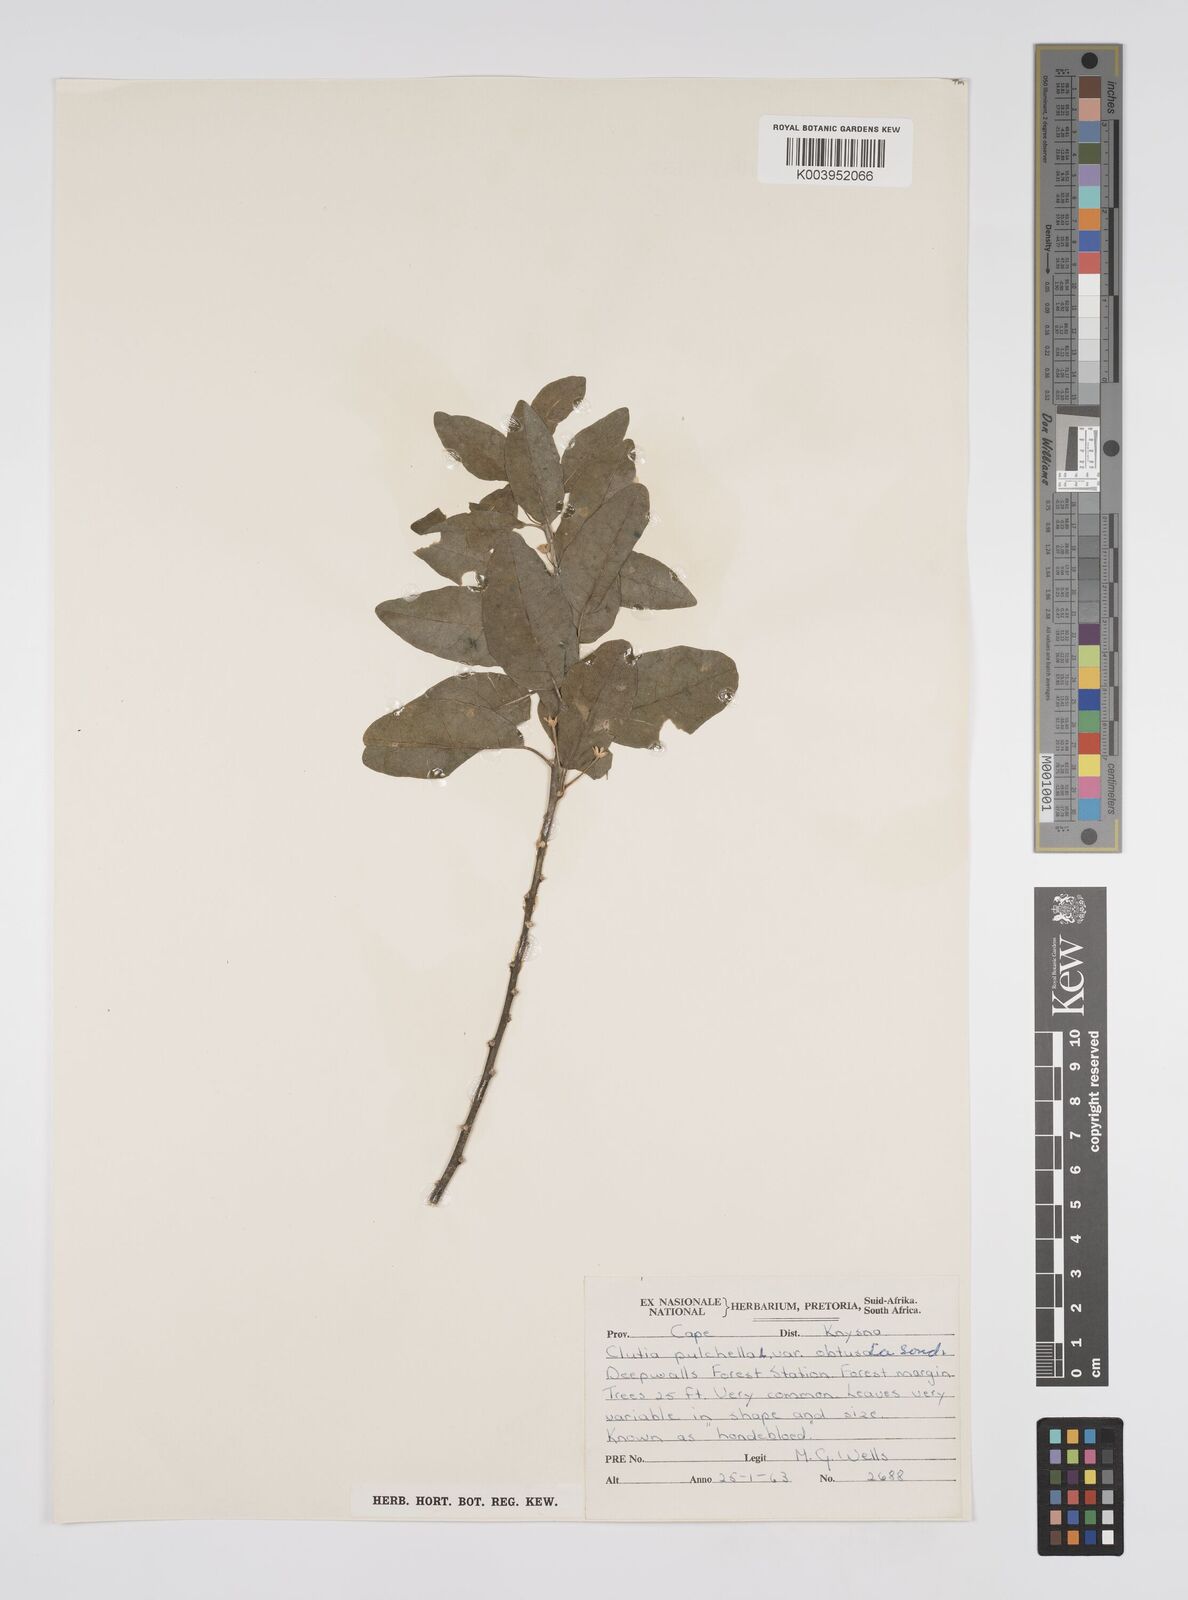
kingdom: Plantae
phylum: Tracheophyta
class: Magnoliopsida
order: Malpighiales
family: Peraceae
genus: Clutia
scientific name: Clutia pulchella
